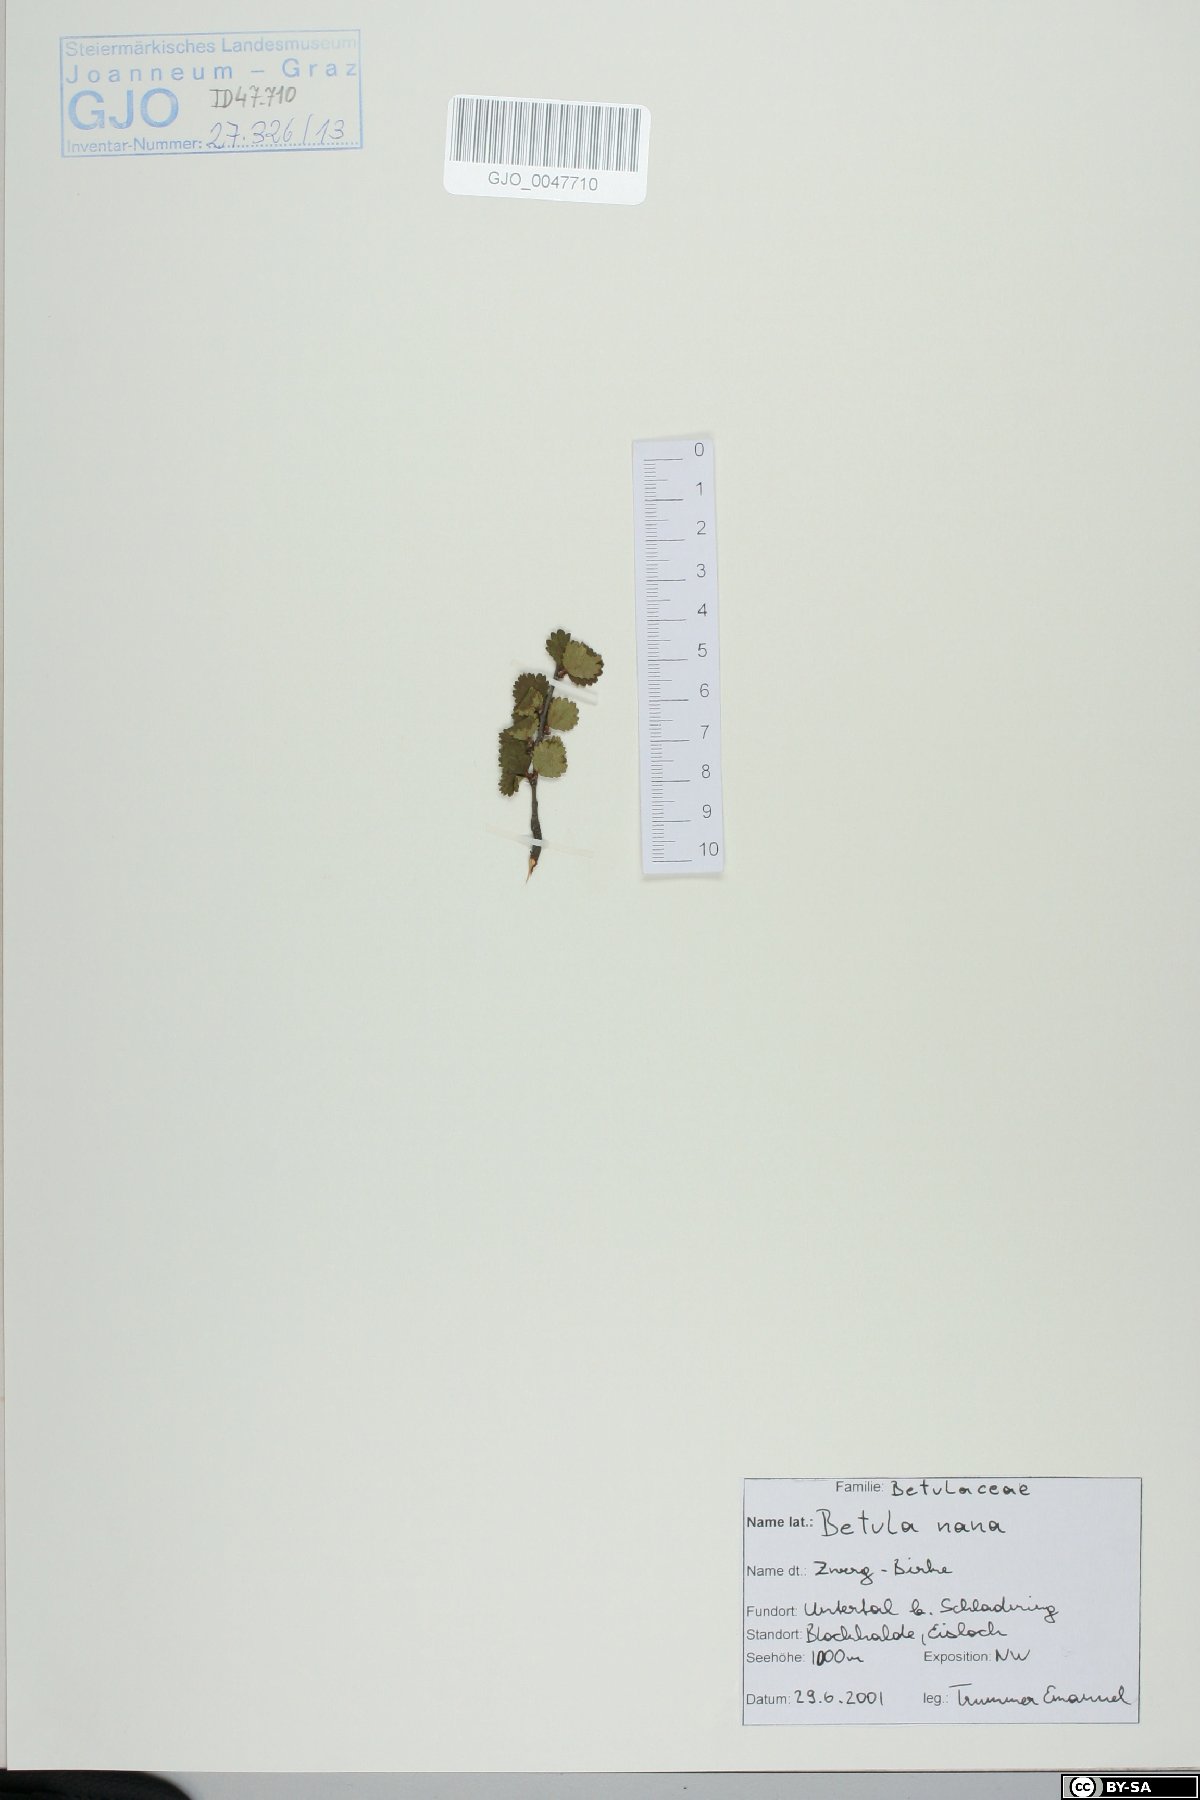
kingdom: Plantae
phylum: Tracheophyta
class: Magnoliopsida
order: Fagales
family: Betulaceae
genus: Betula
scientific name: Betula nana
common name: Arctic dwarf birch
